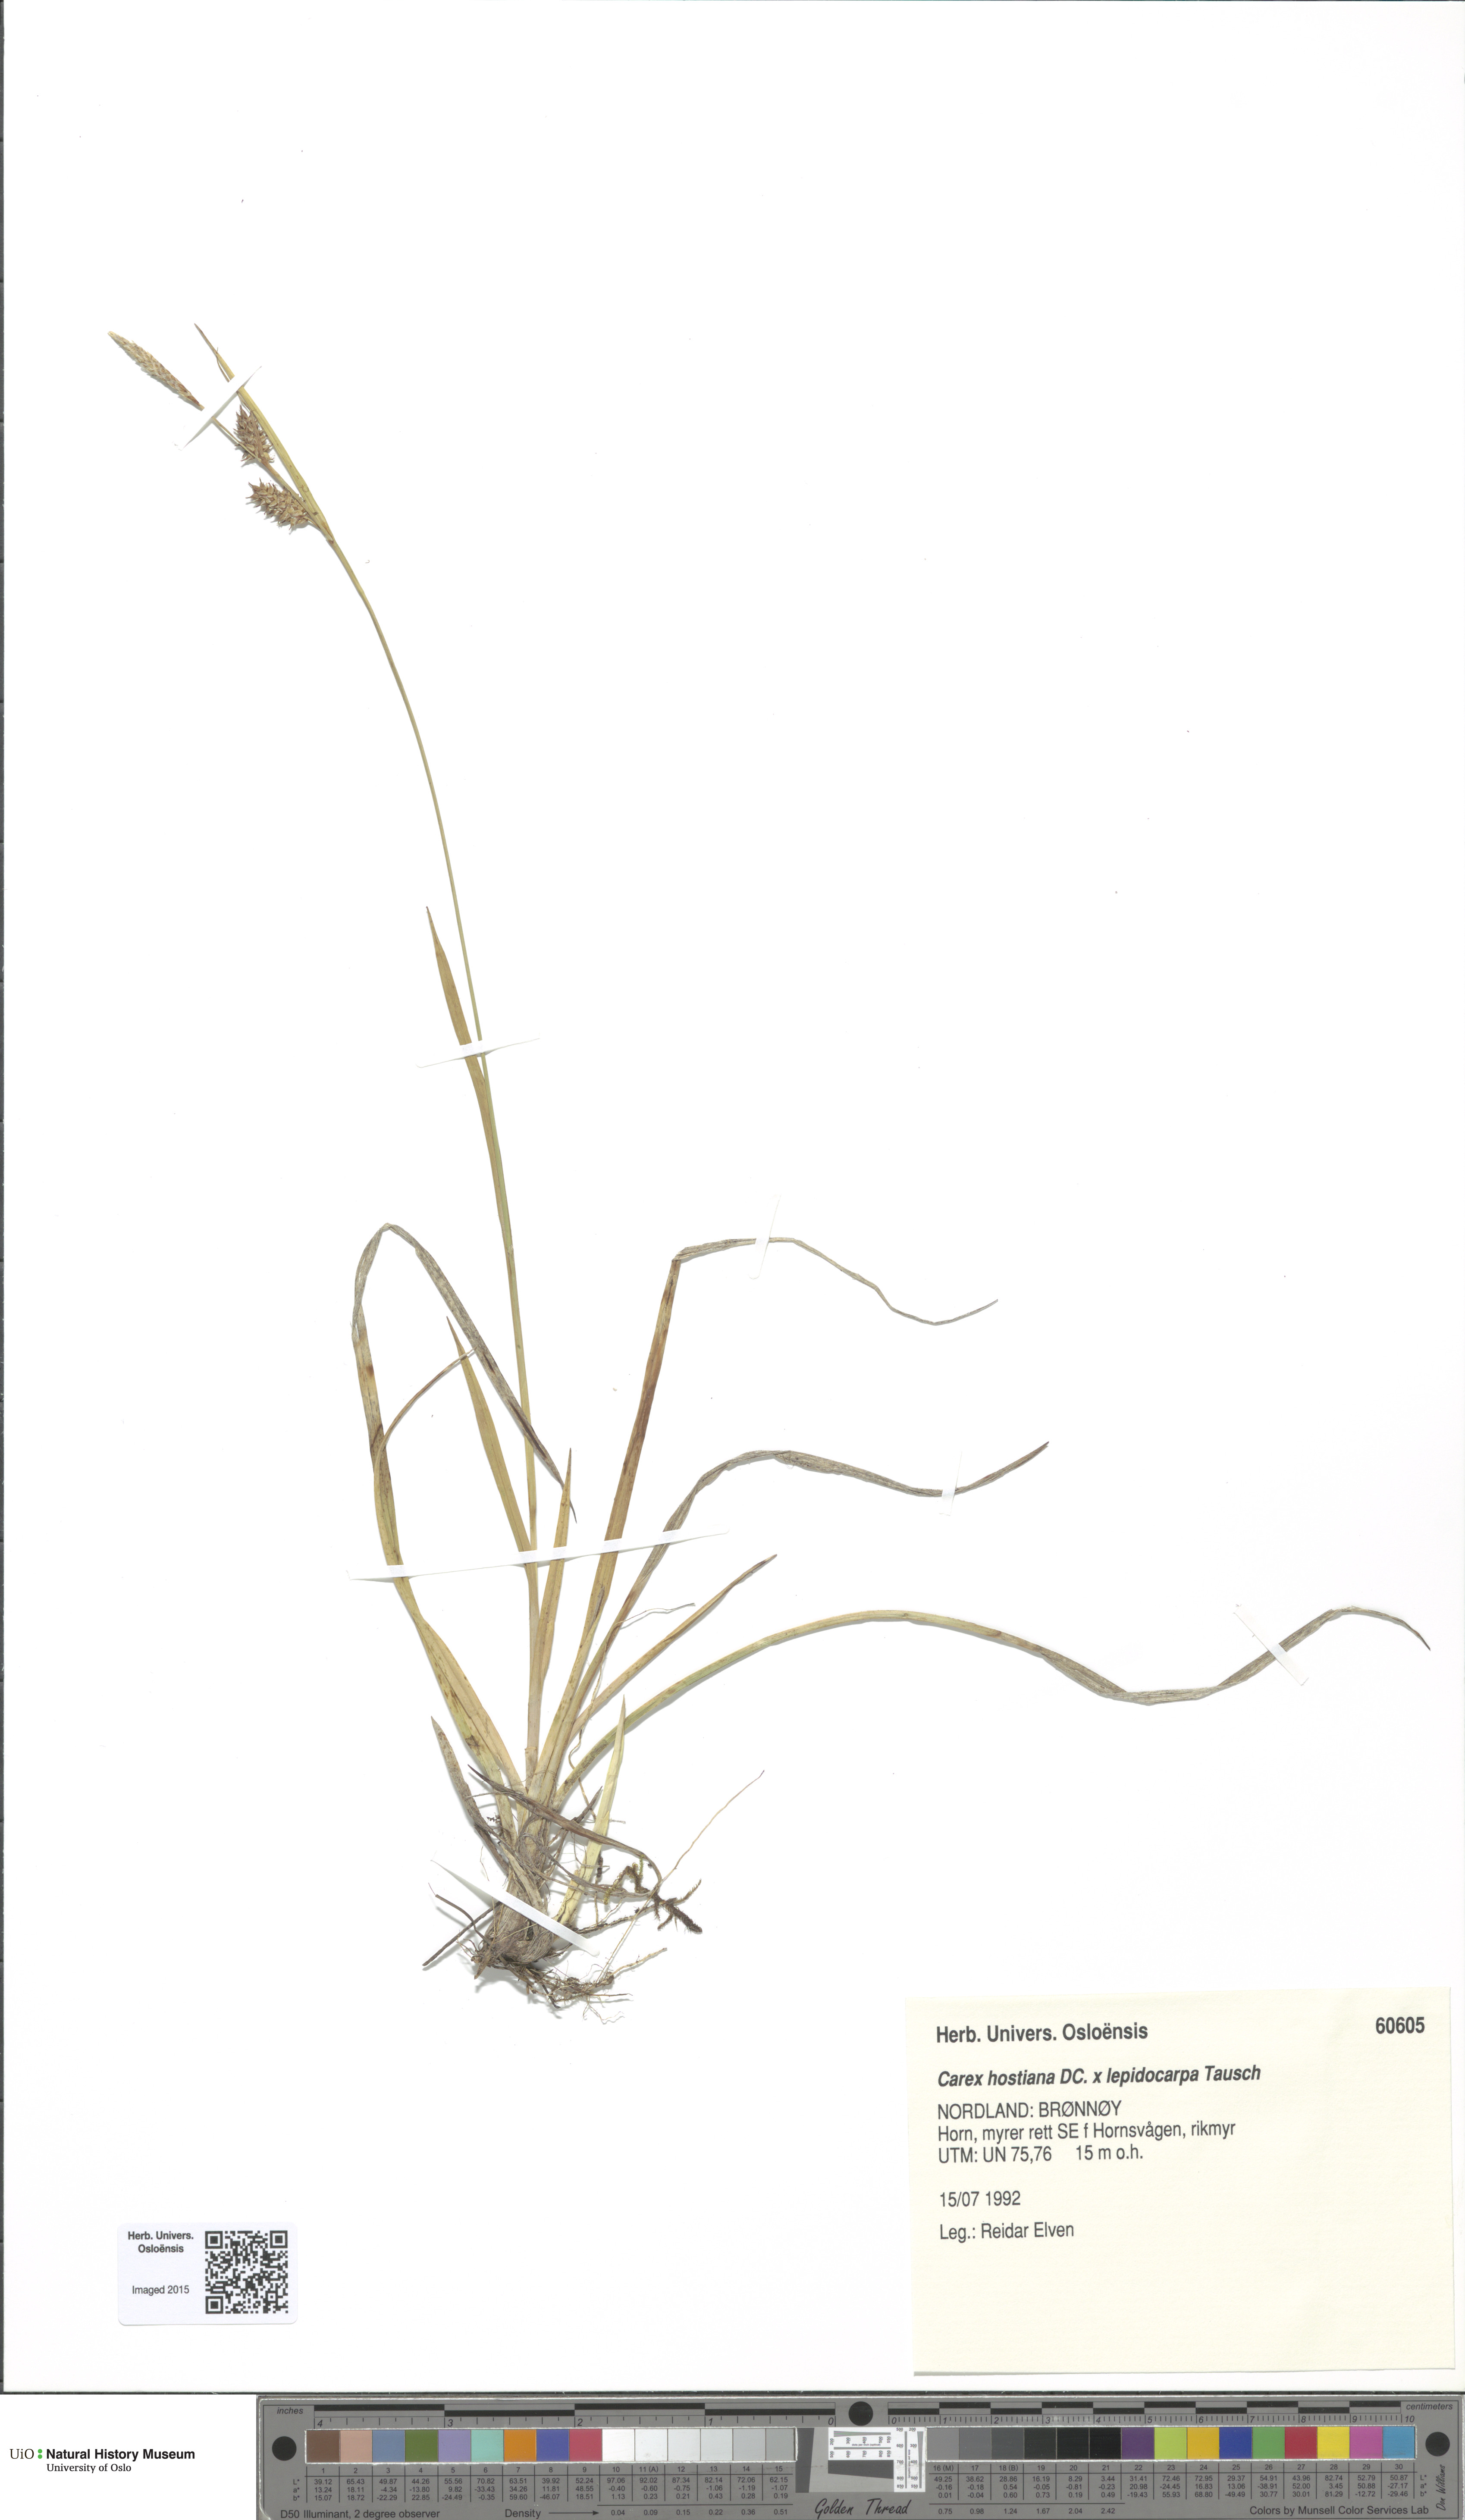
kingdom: Plantae
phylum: Tracheophyta
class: Liliopsida
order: Poales
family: Cyperaceae
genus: Carex
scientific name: Carex
